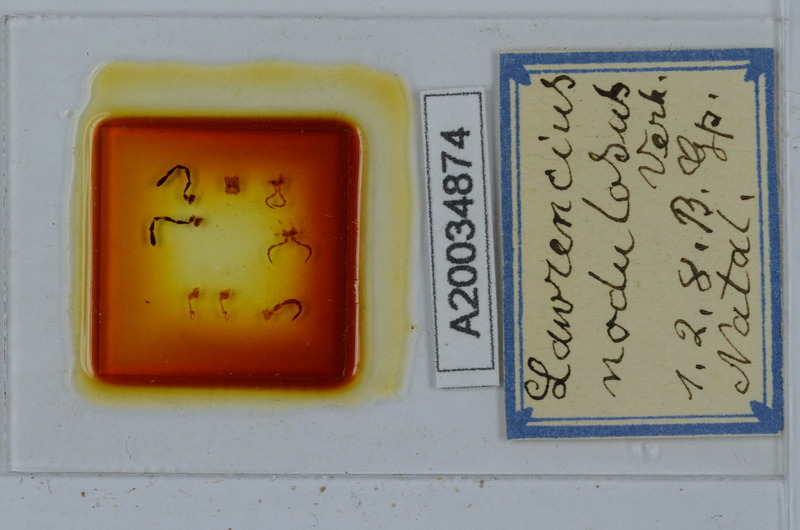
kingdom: Animalia
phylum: Chordata
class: Aves
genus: Lawrencius
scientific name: Lawrencius
